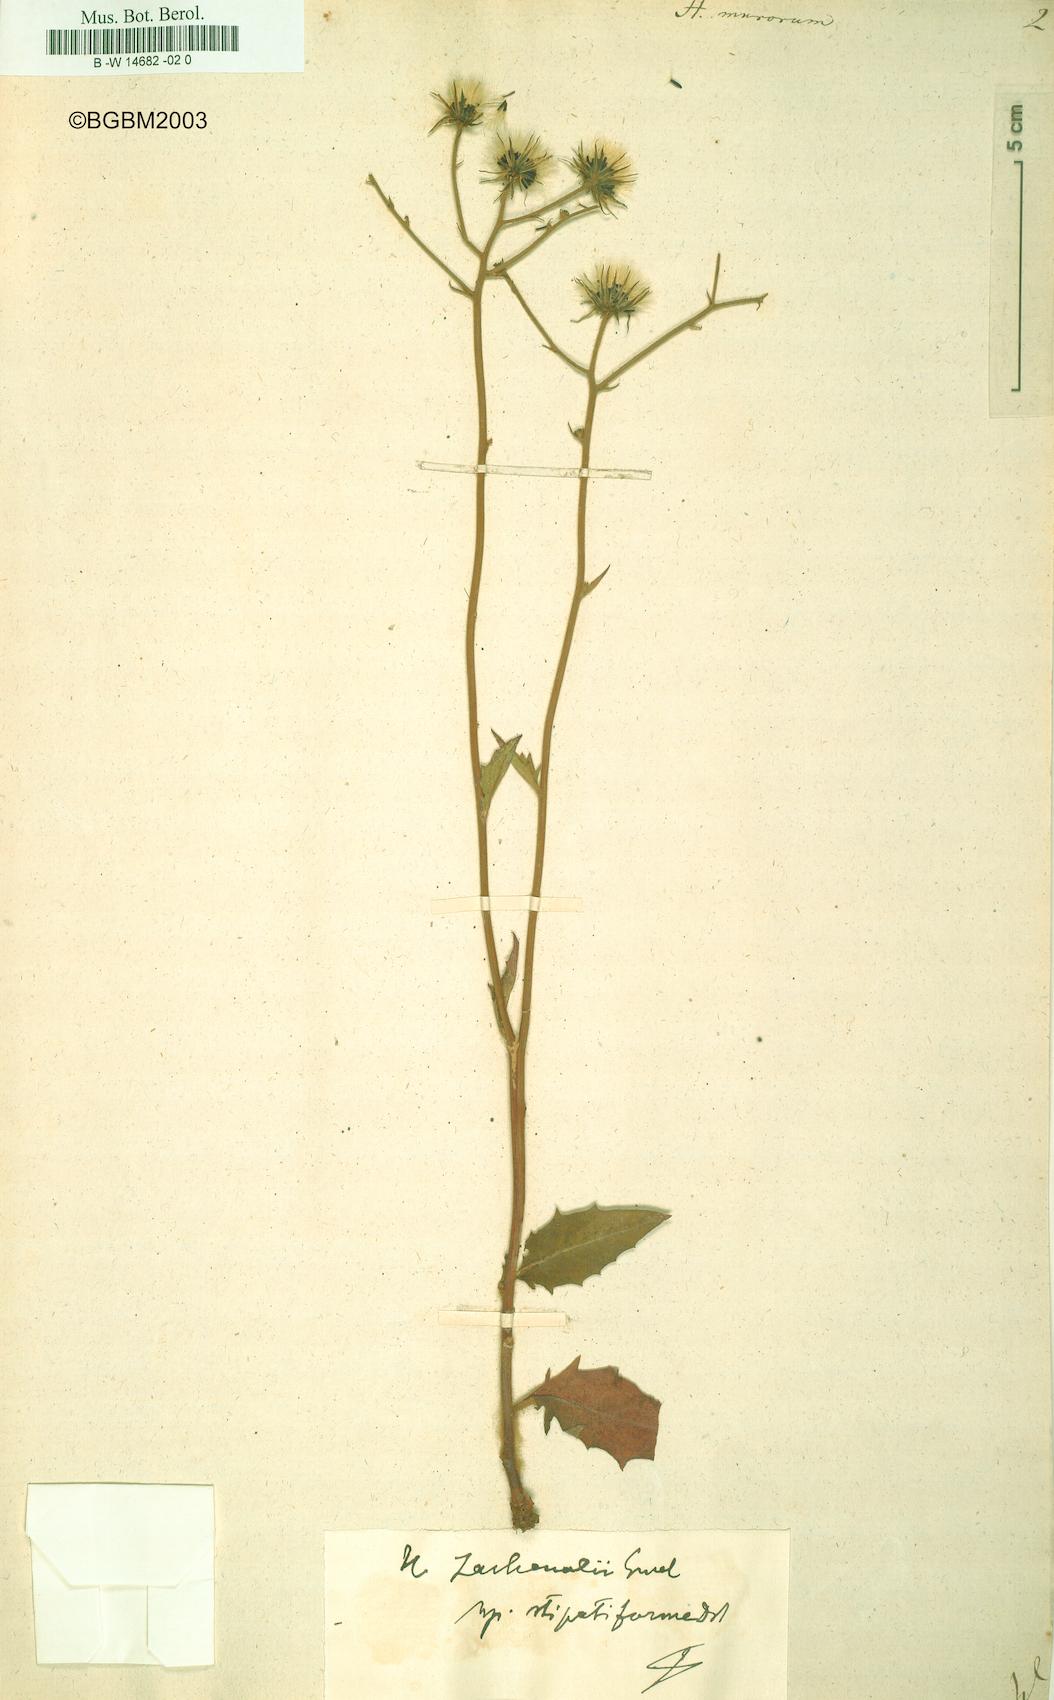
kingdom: Plantae
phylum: Tracheophyta
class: Magnoliopsida
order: Asterales
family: Asteraceae
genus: Hieracium
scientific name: Hieracium murorum
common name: Wall hawkweed
